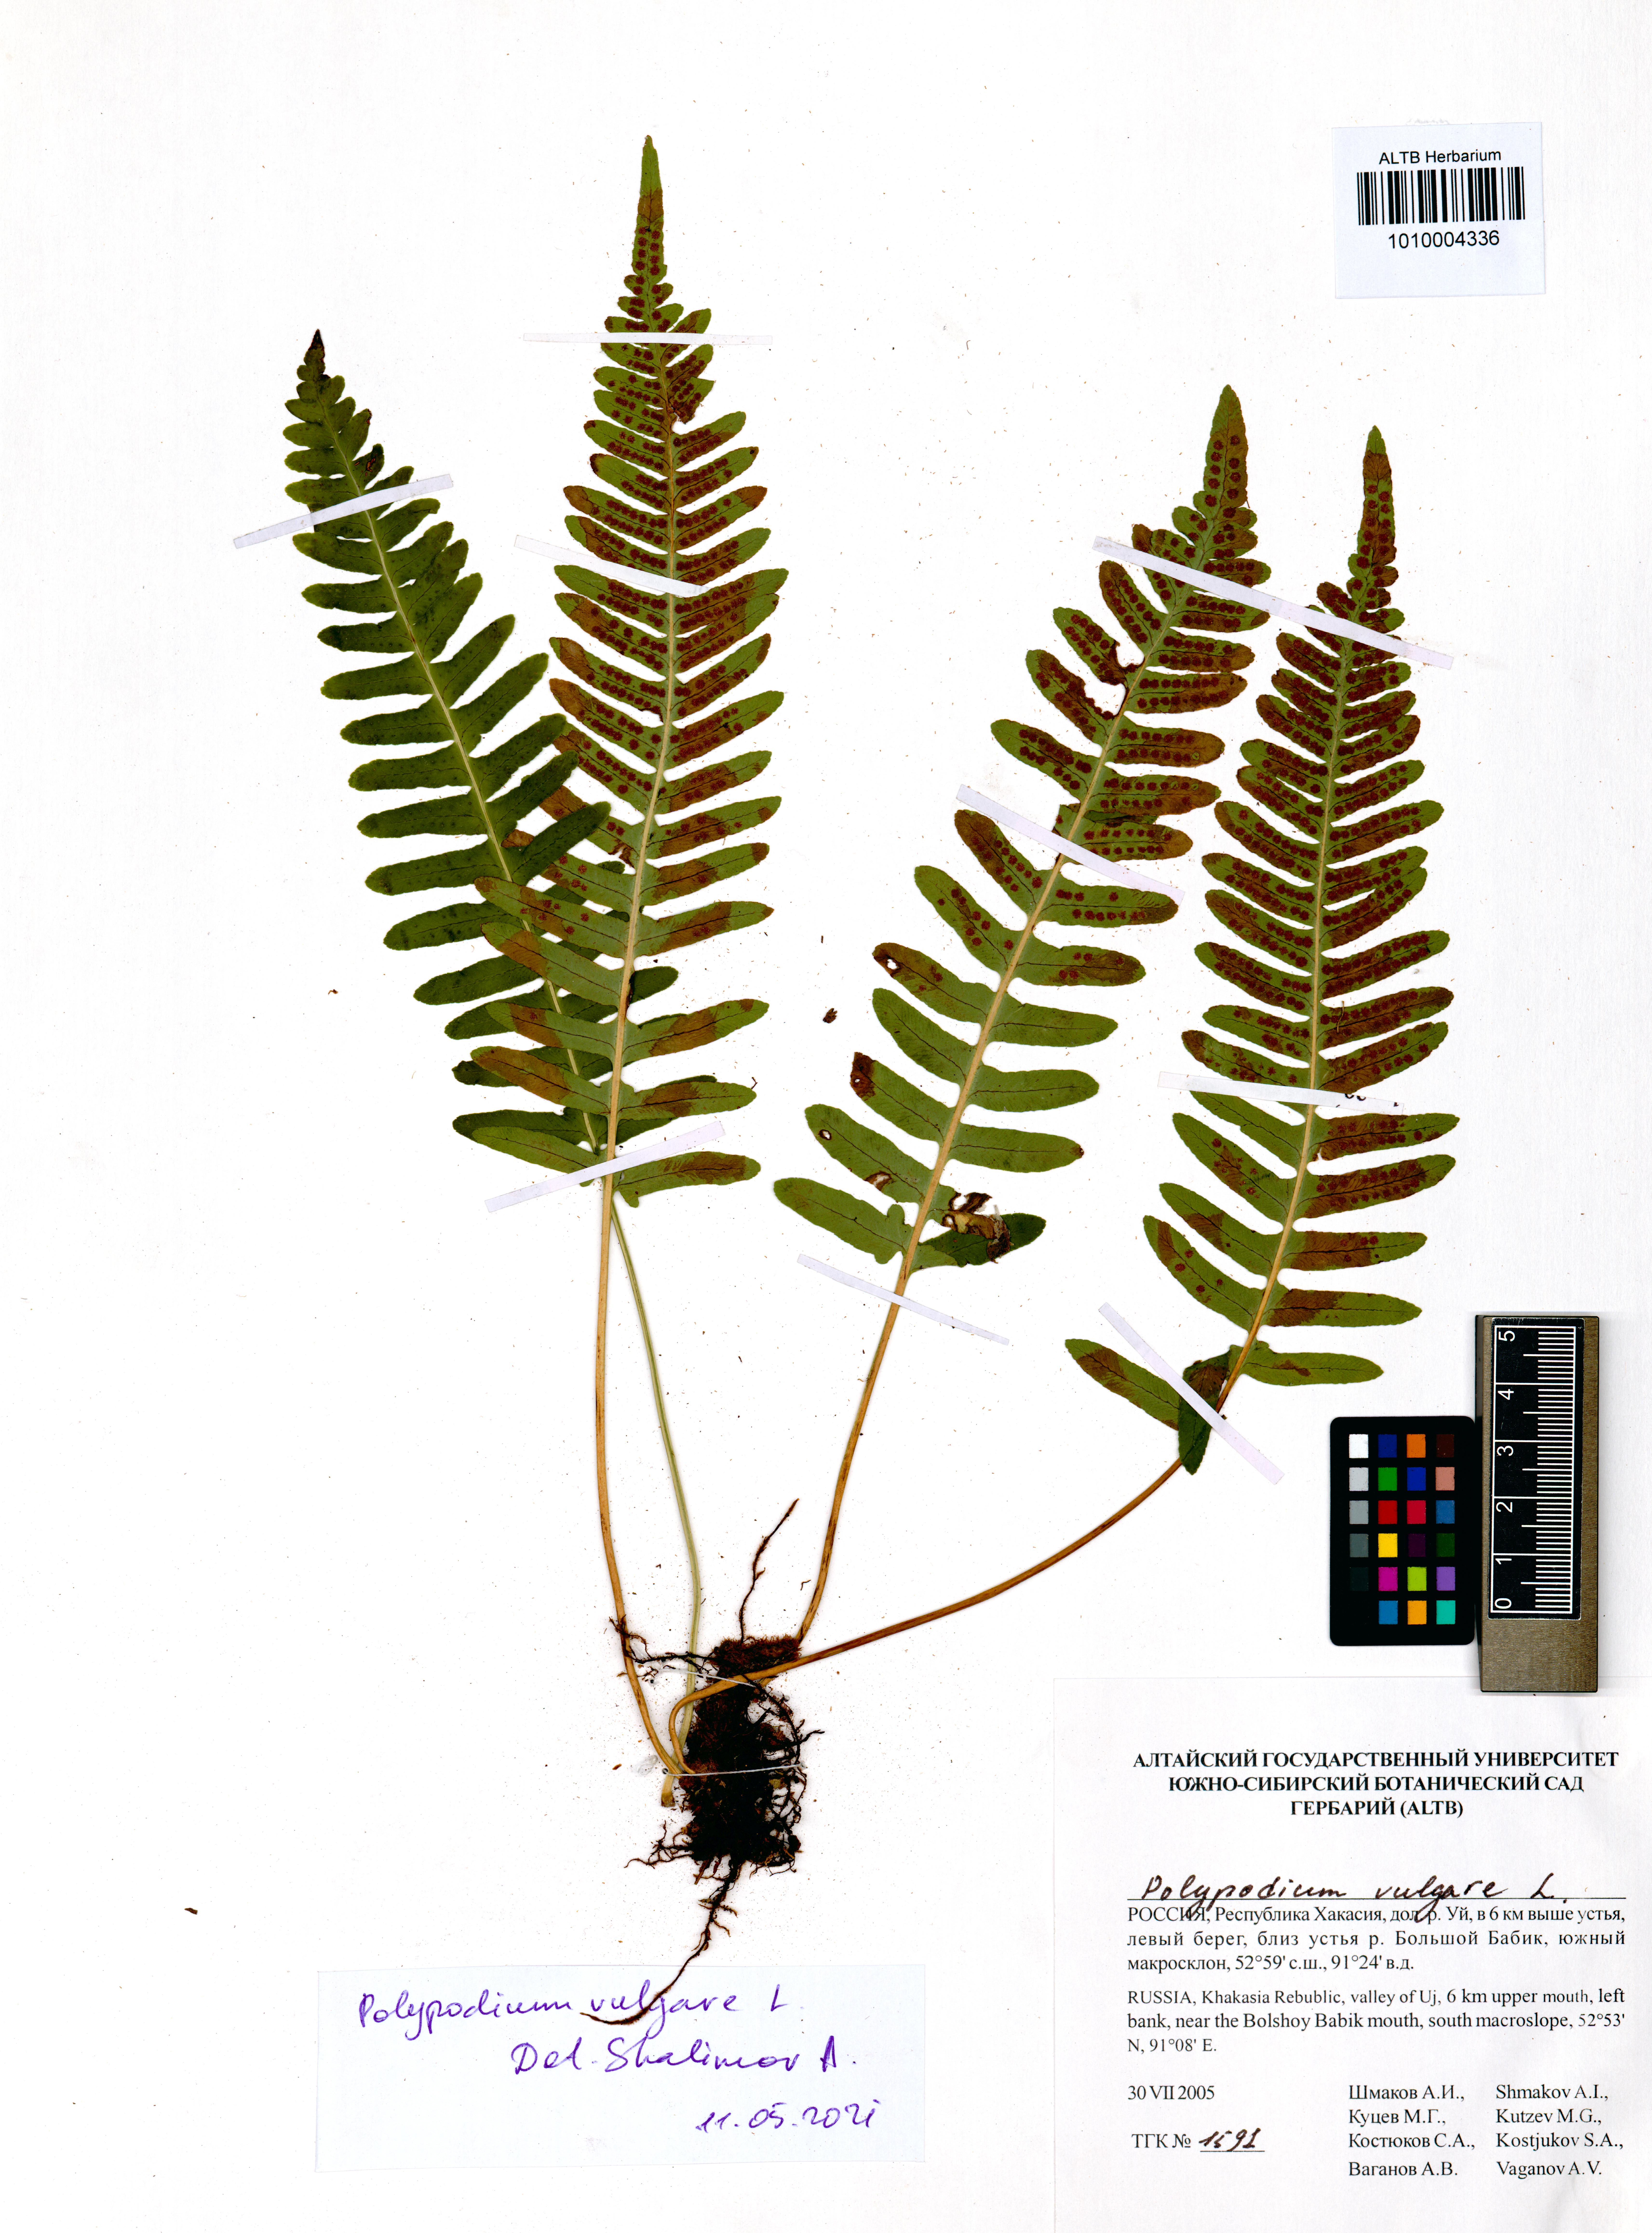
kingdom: Plantae
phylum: Tracheophyta
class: Polypodiopsida
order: Polypodiales
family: Polypodiaceae
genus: Polypodium
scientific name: Polypodium vulgare
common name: Common polypody
